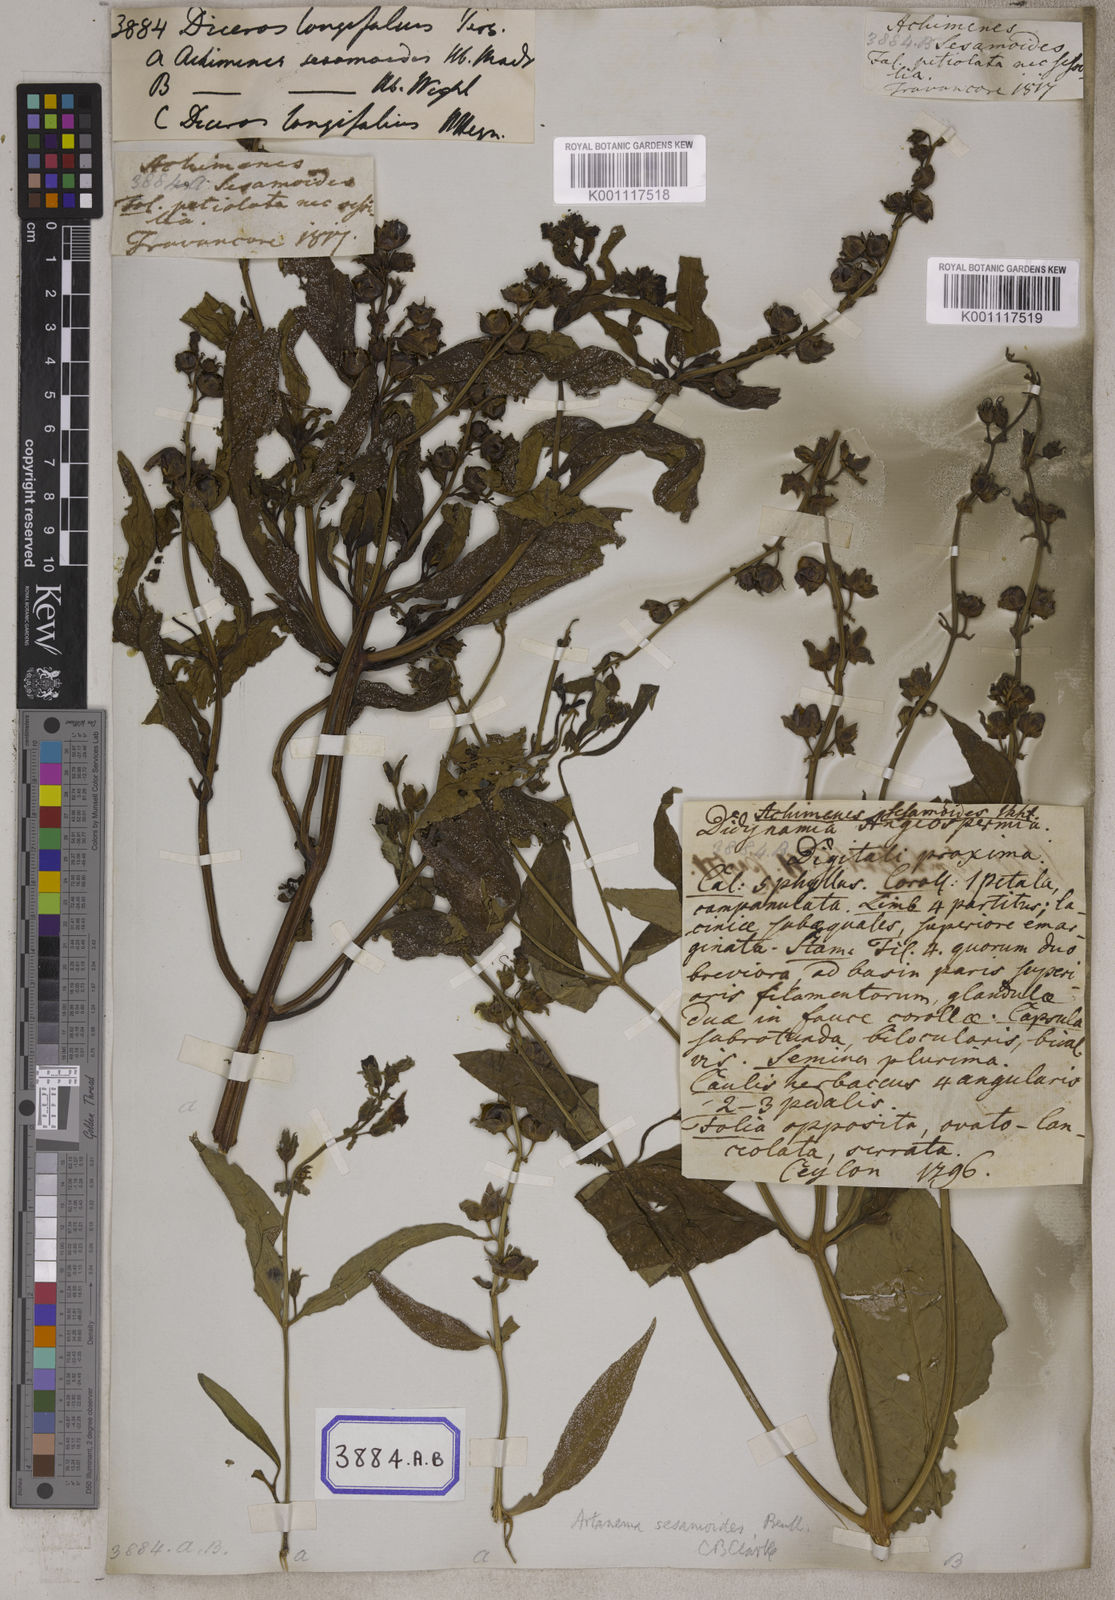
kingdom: Plantae
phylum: Tracheophyta
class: Magnoliopsida
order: Lamiales
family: Linderniaceae
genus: Artanema
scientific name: Artanema longifolium
